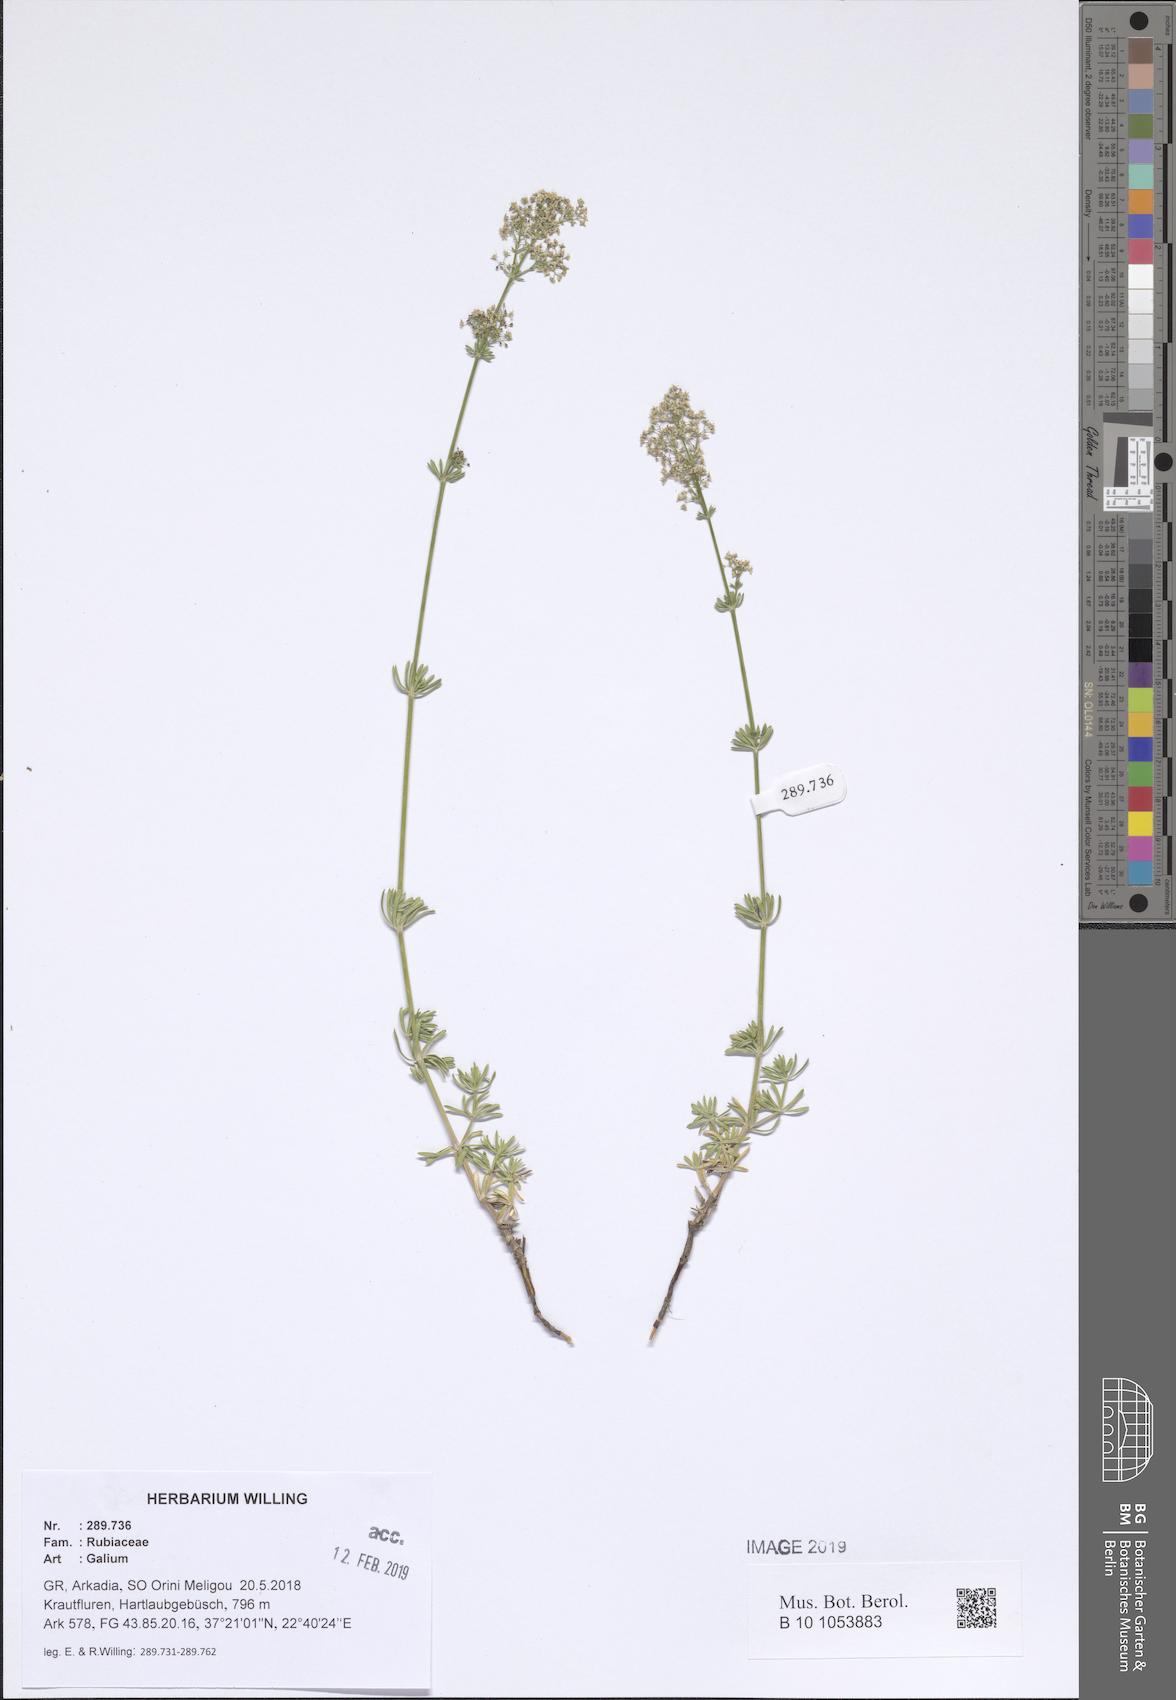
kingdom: Plantae
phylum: Tracheophyta
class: Magnoliopsida
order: Gentianales
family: Rubiaceae
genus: Galium
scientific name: Galium
